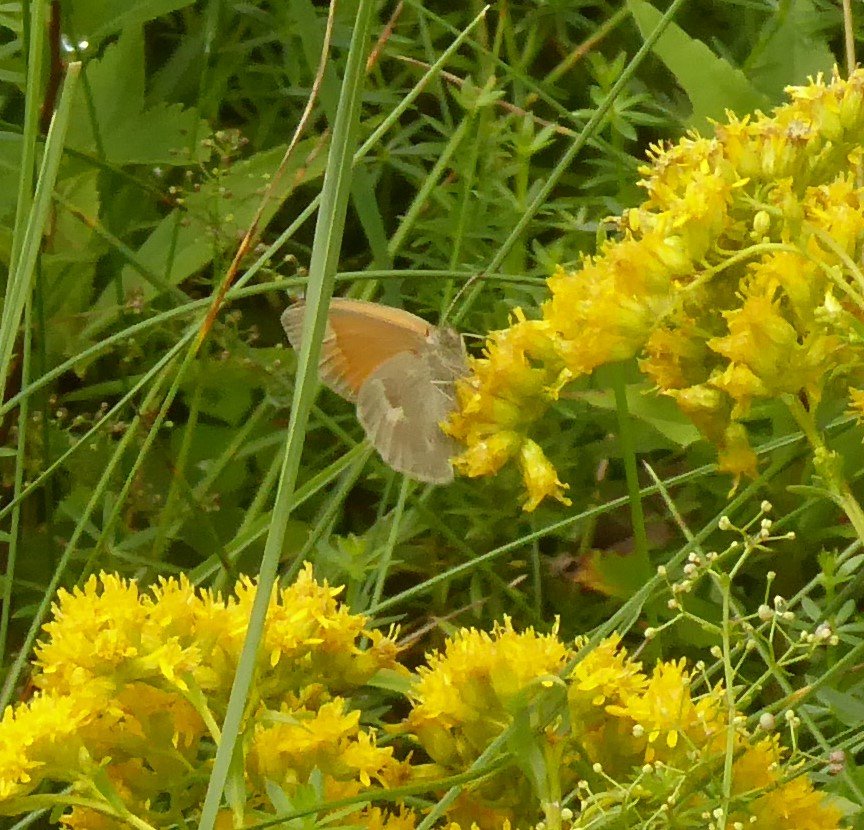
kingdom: Animalia
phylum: Arthropoda
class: Insecta
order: Lepidoptera
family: Nymphalidae
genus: Coenonympha
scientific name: Coenonympha tullia
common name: Large Heath
